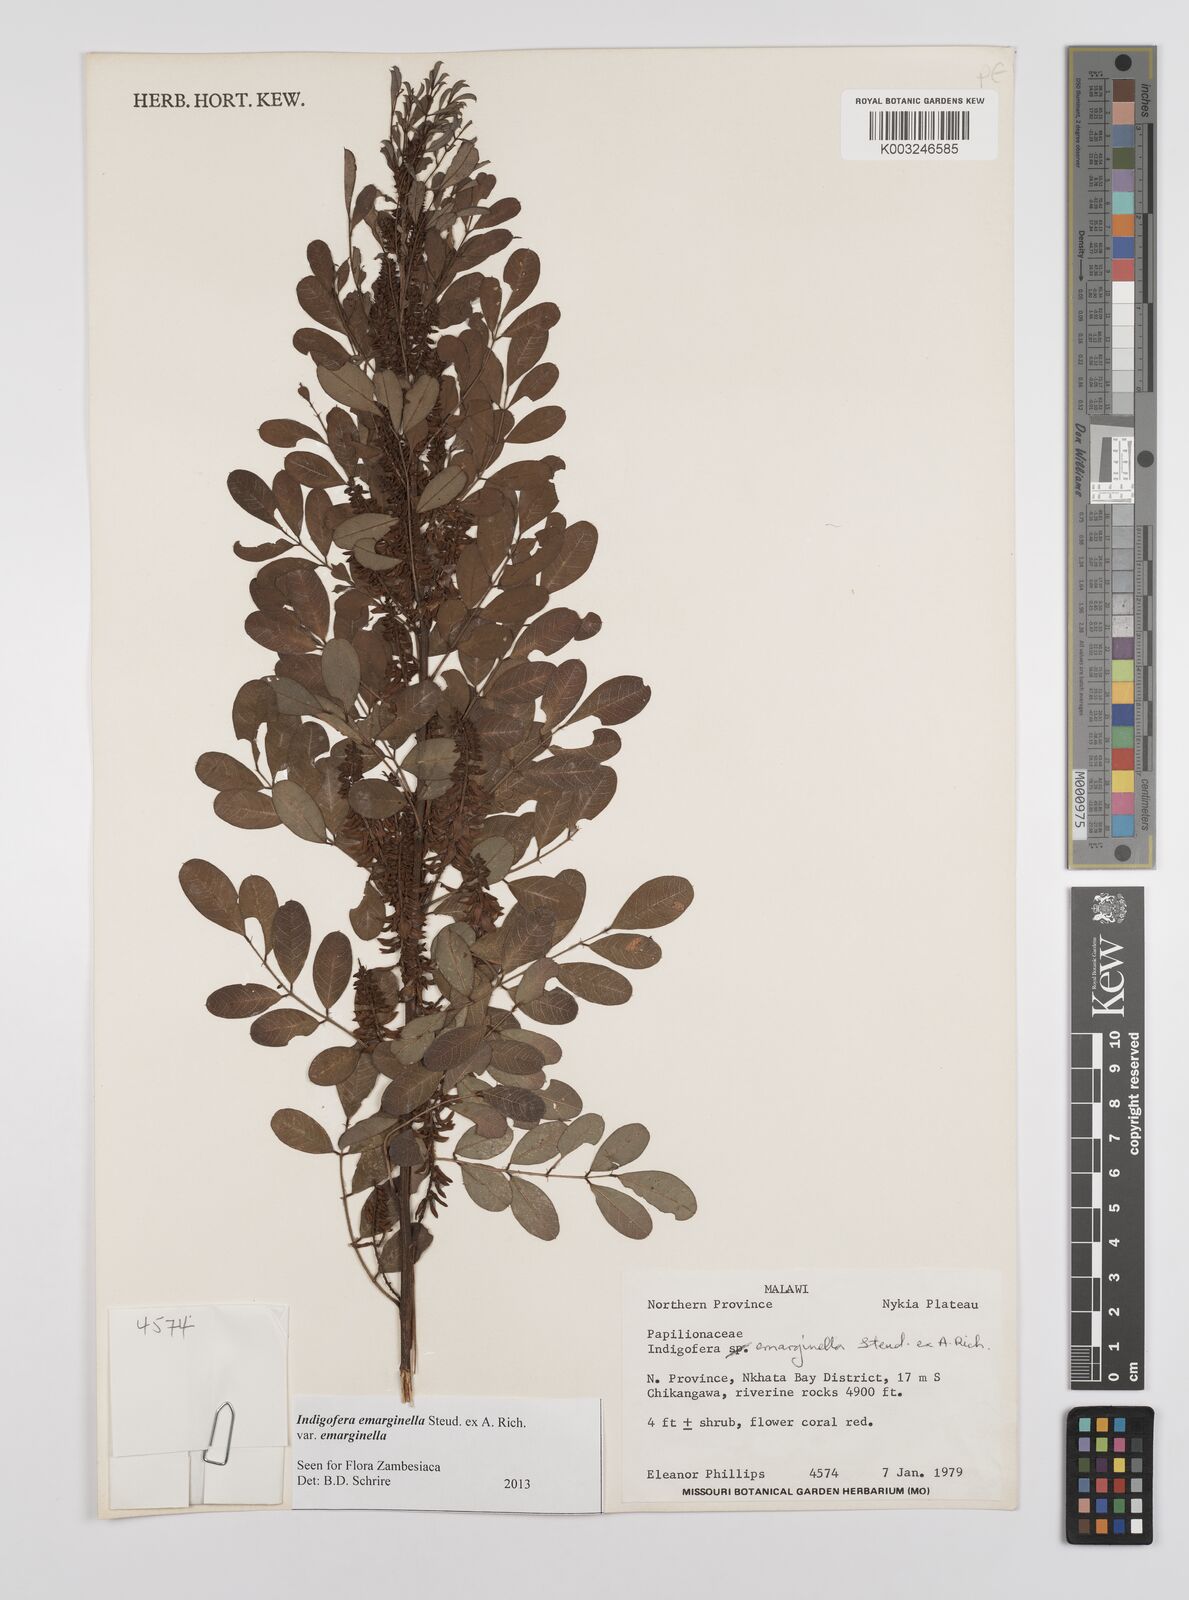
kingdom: Plantae
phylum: Tracheophyta
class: Magnoliopsida
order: Fabales
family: Fabaceae
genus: Indigofera
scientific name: Indigofera emarginella
